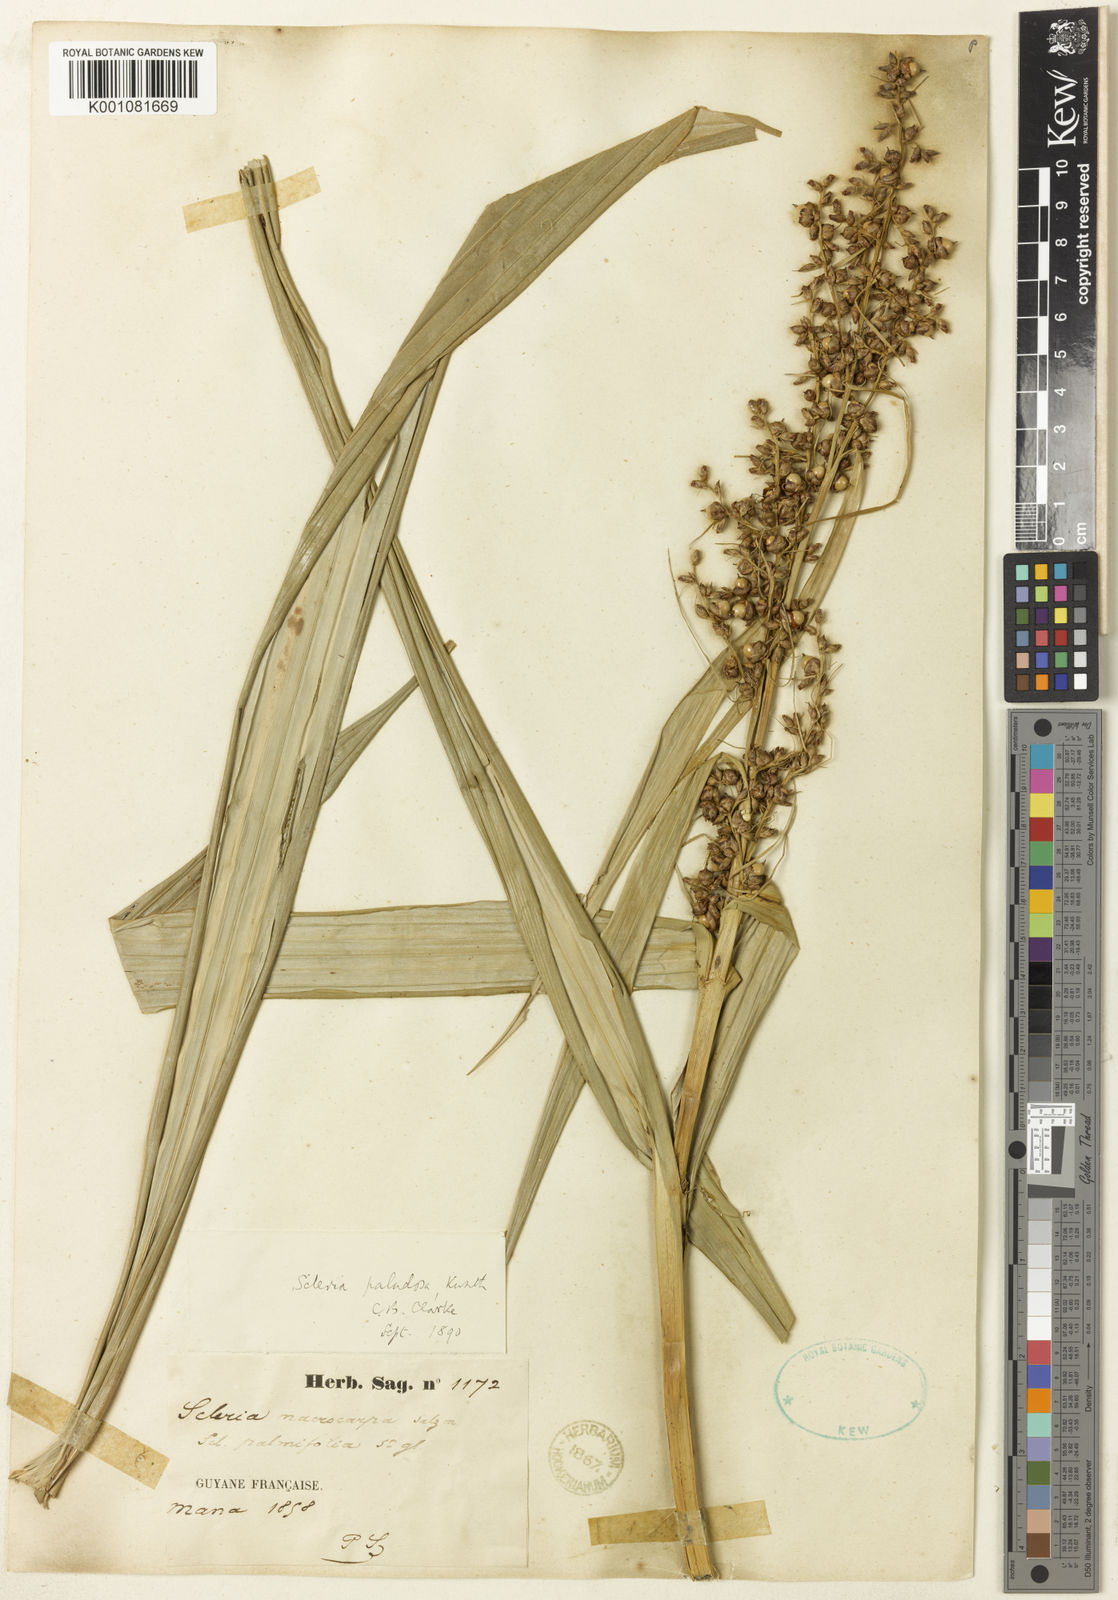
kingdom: Plantae
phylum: Tracheophyta
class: Liliopsida
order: Poales
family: Cyperaceae
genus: Scleria
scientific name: Scleria macrophylla
